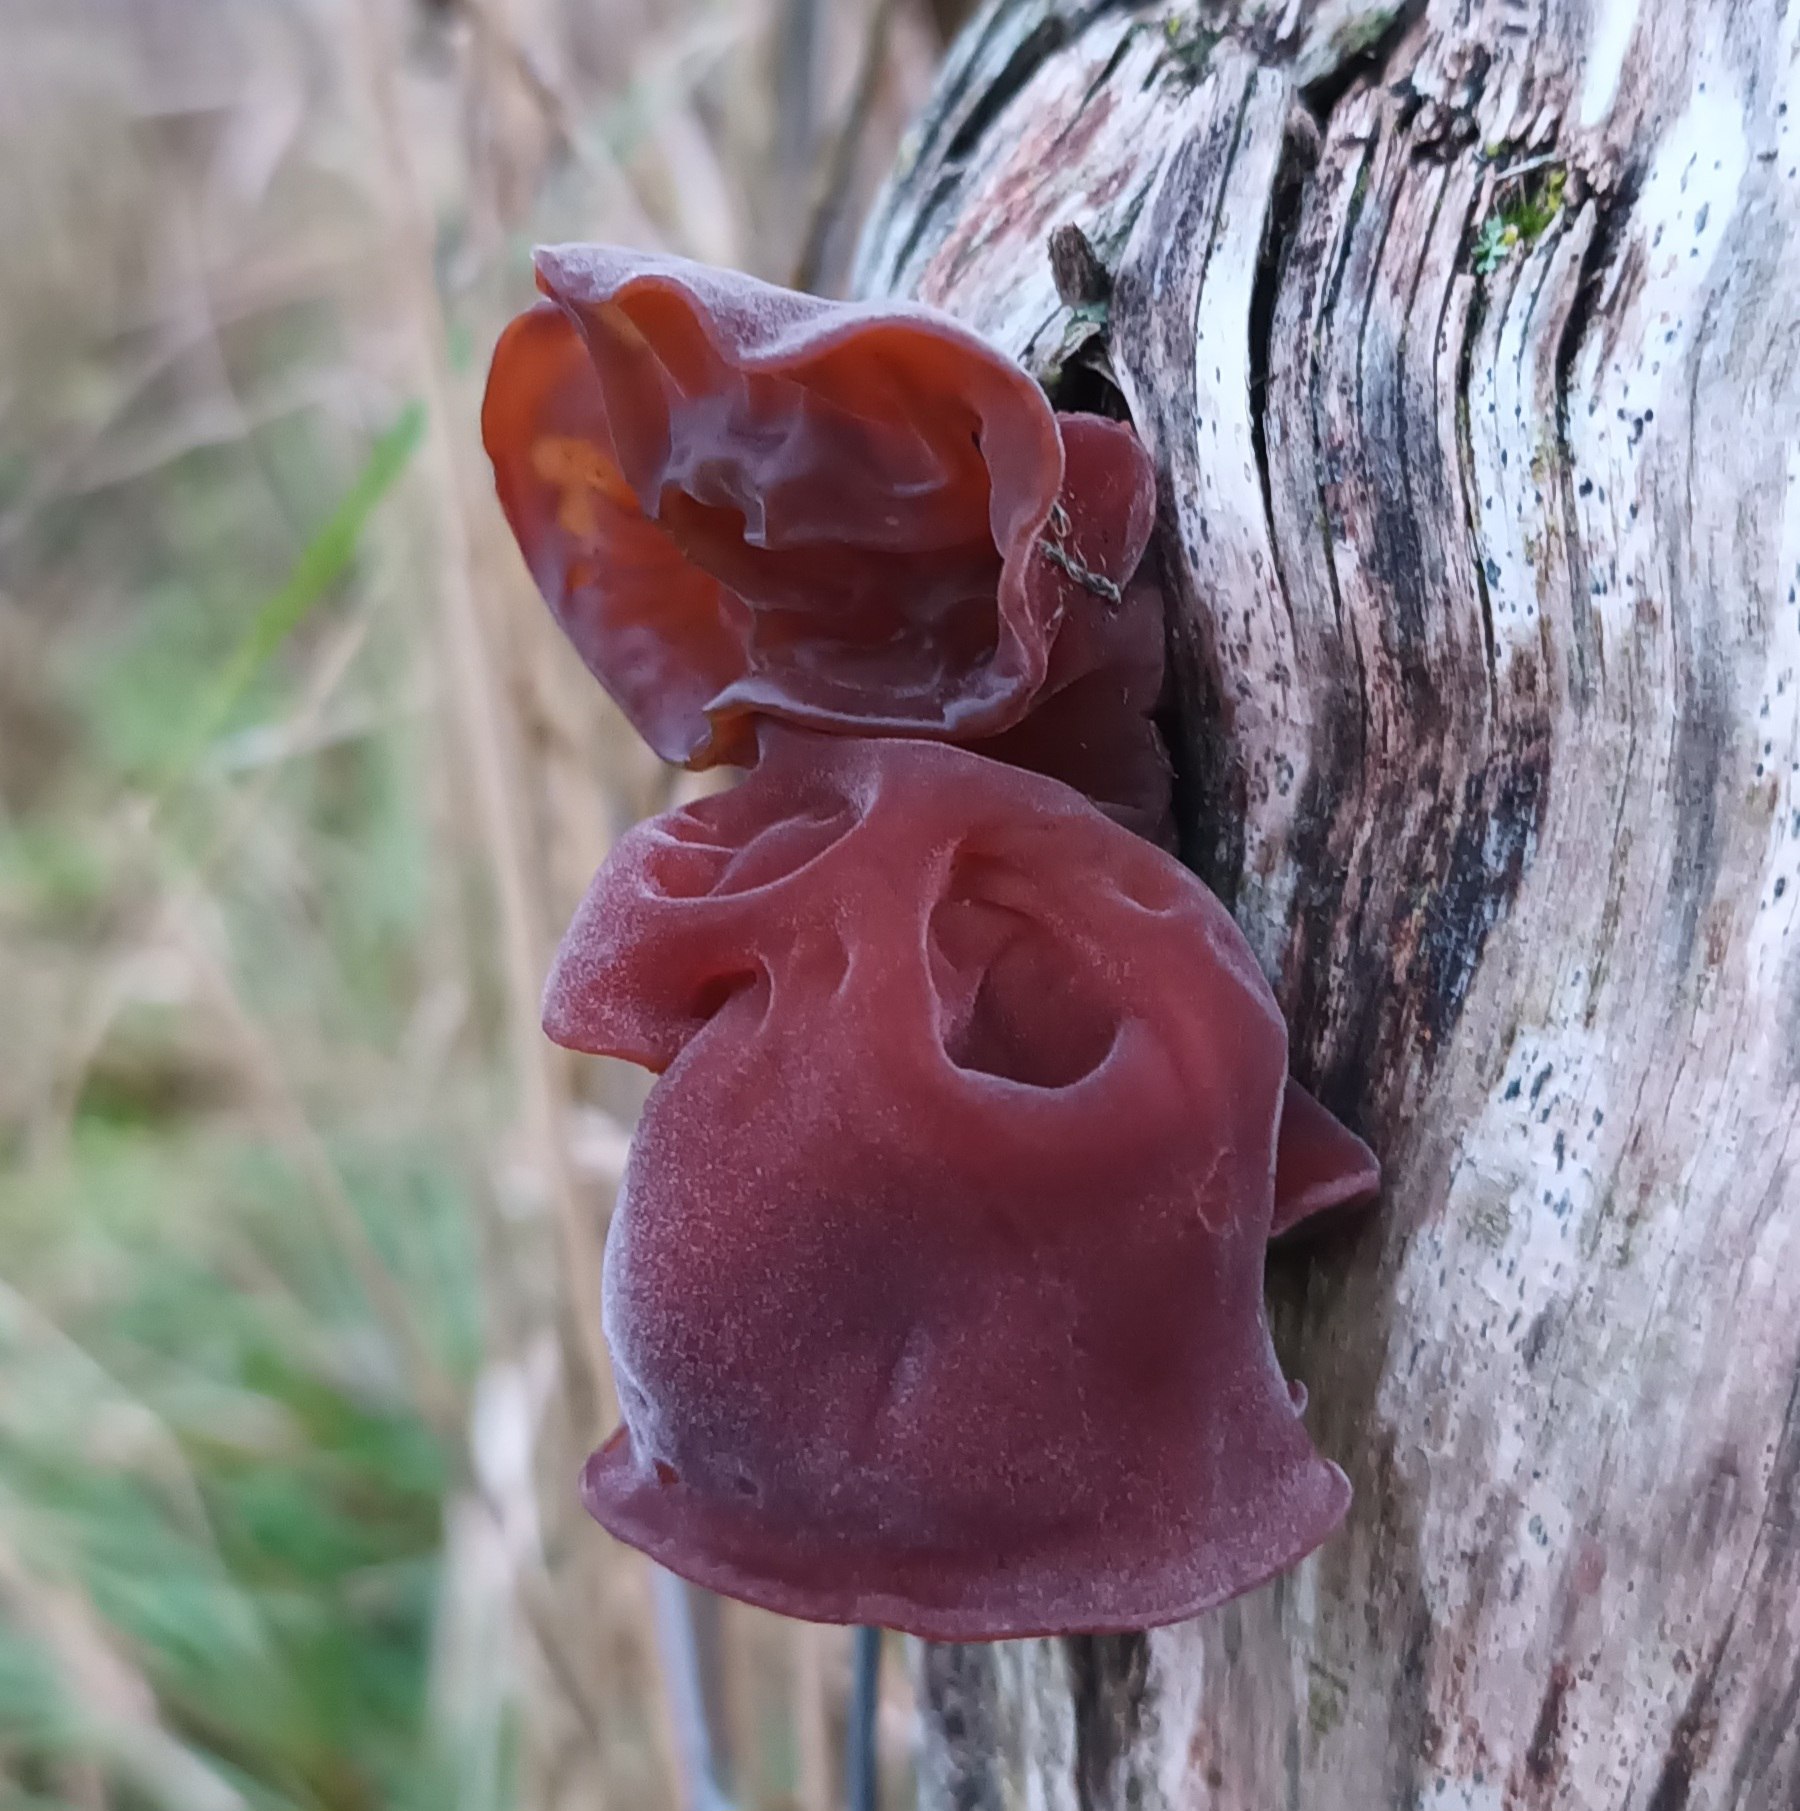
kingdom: Fungi
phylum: Basidiomycota
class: Agaricomycetes
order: Auriculariales
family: Auriculariaceae
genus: Auricularia
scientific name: Auricularia auricula-judae
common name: Almindelig judasøre
